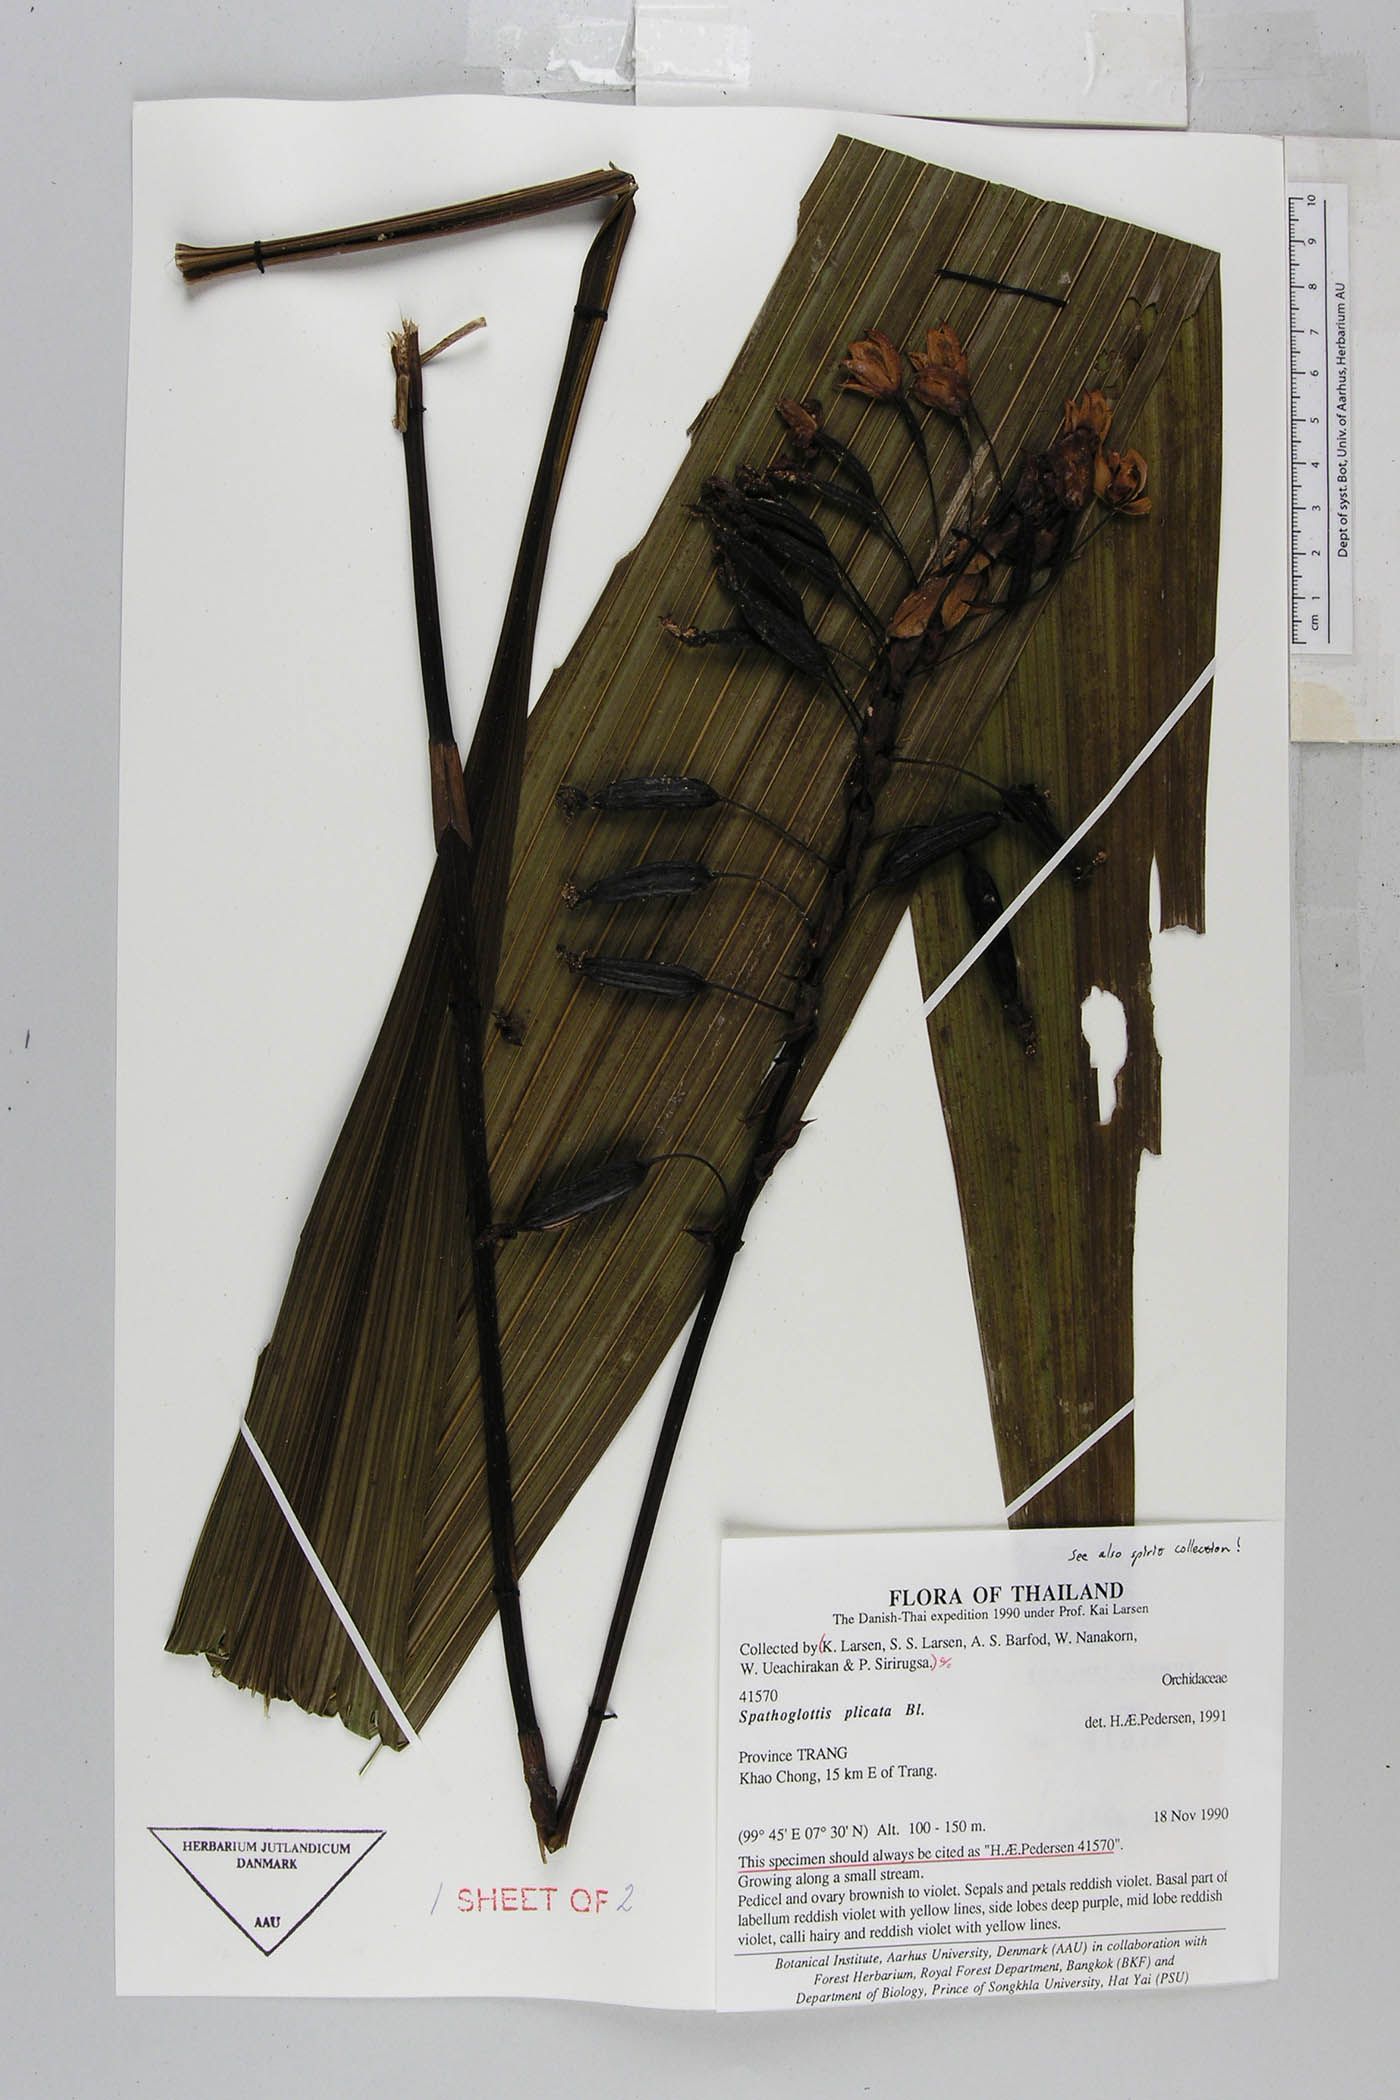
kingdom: Plantae
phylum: Tracheophyta
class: Liliopsida
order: Asparagales
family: Orchidaceae
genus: Spathoglottis
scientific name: Spathoglottis plicata
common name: Philippine ground orchid
